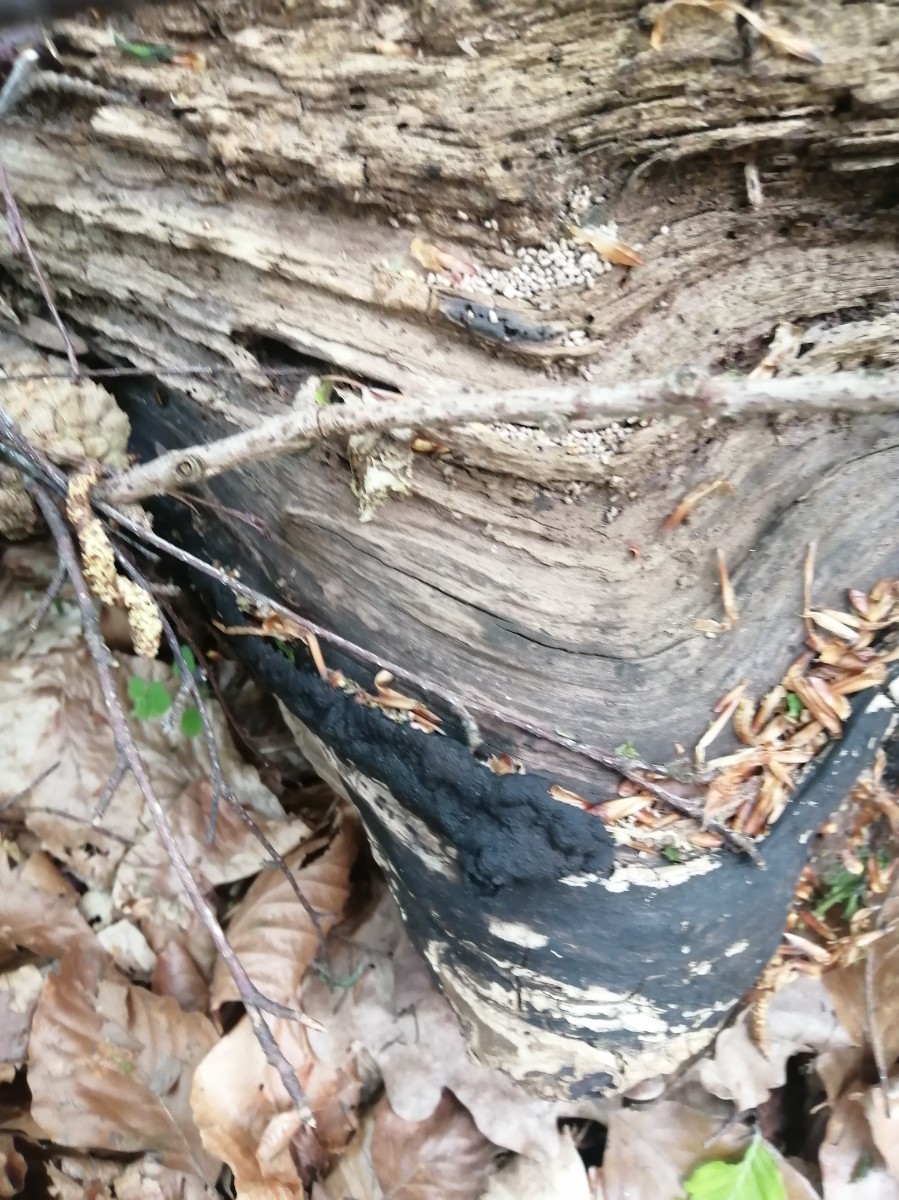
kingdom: Fungi
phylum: Ascomycota
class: Sordariomycetes
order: Xylariales
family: Hypoxylaceae
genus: Jackrogersella
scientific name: Jackrogersella multiformis
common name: foranderlig kulbær
